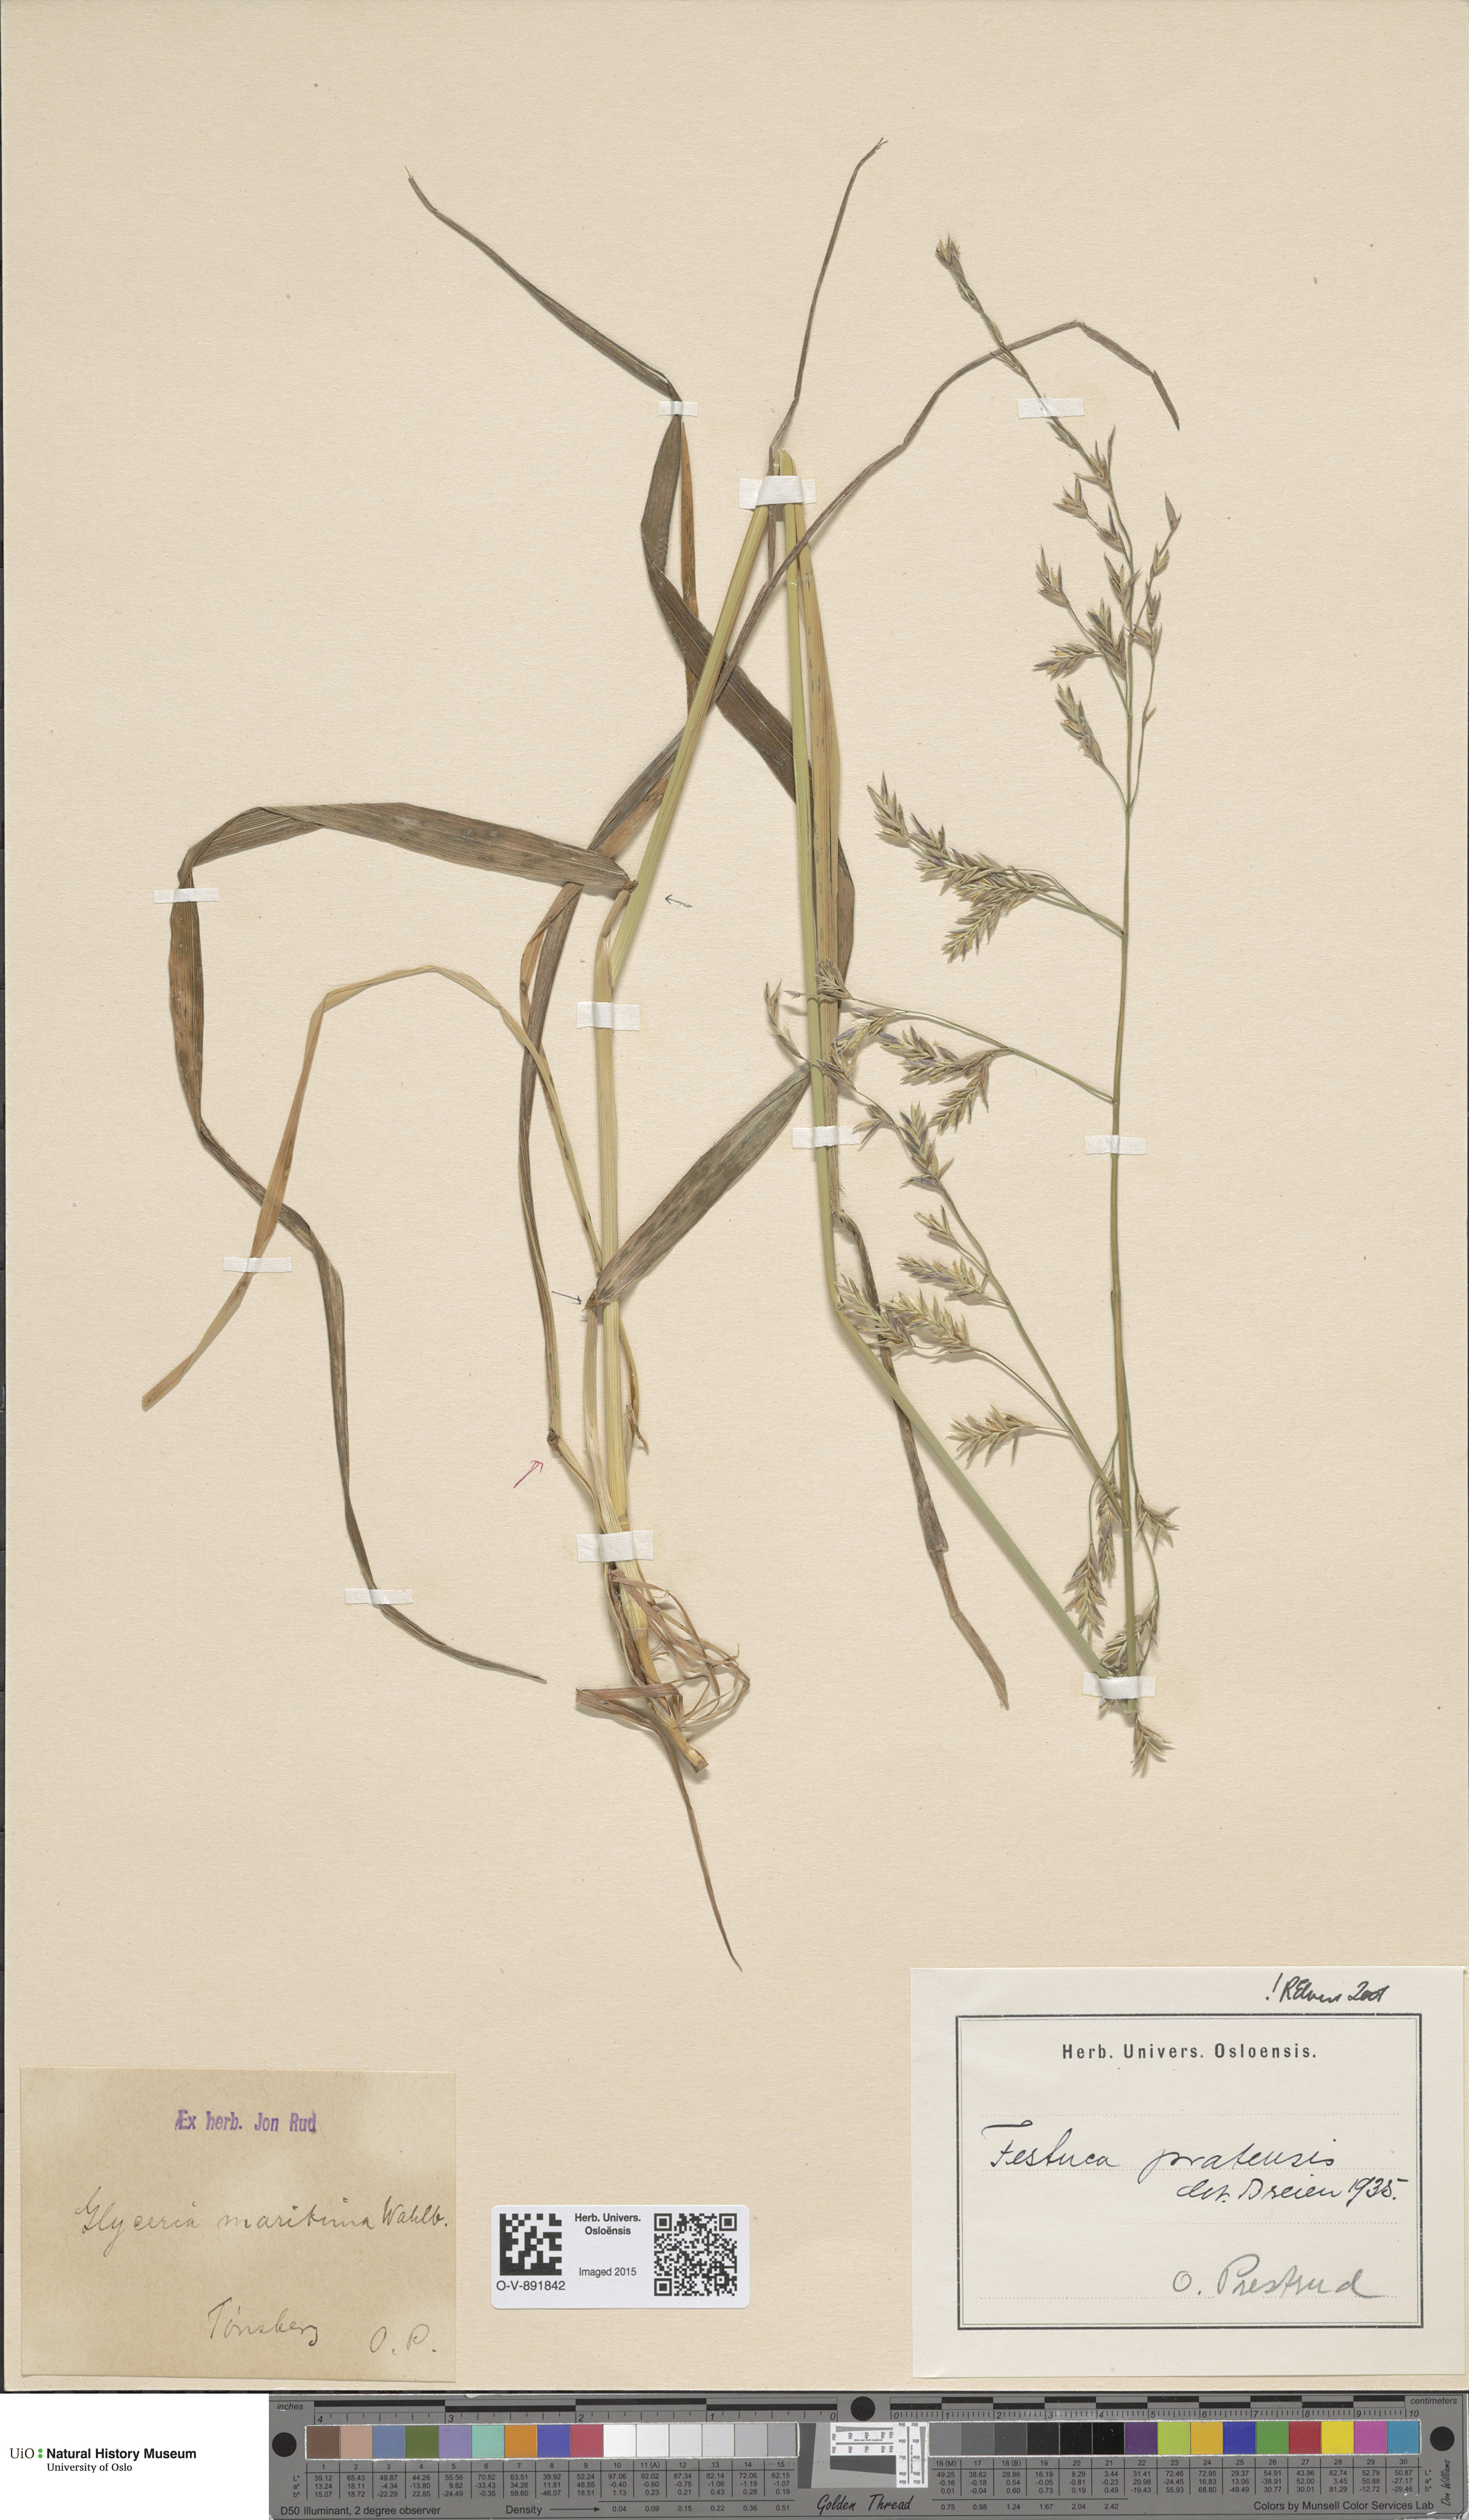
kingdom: Plantae
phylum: Tracheophyta
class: Liliopsida
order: Poales
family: Poaceae
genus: Lolium
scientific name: Lolium pratense
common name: Dover grass
